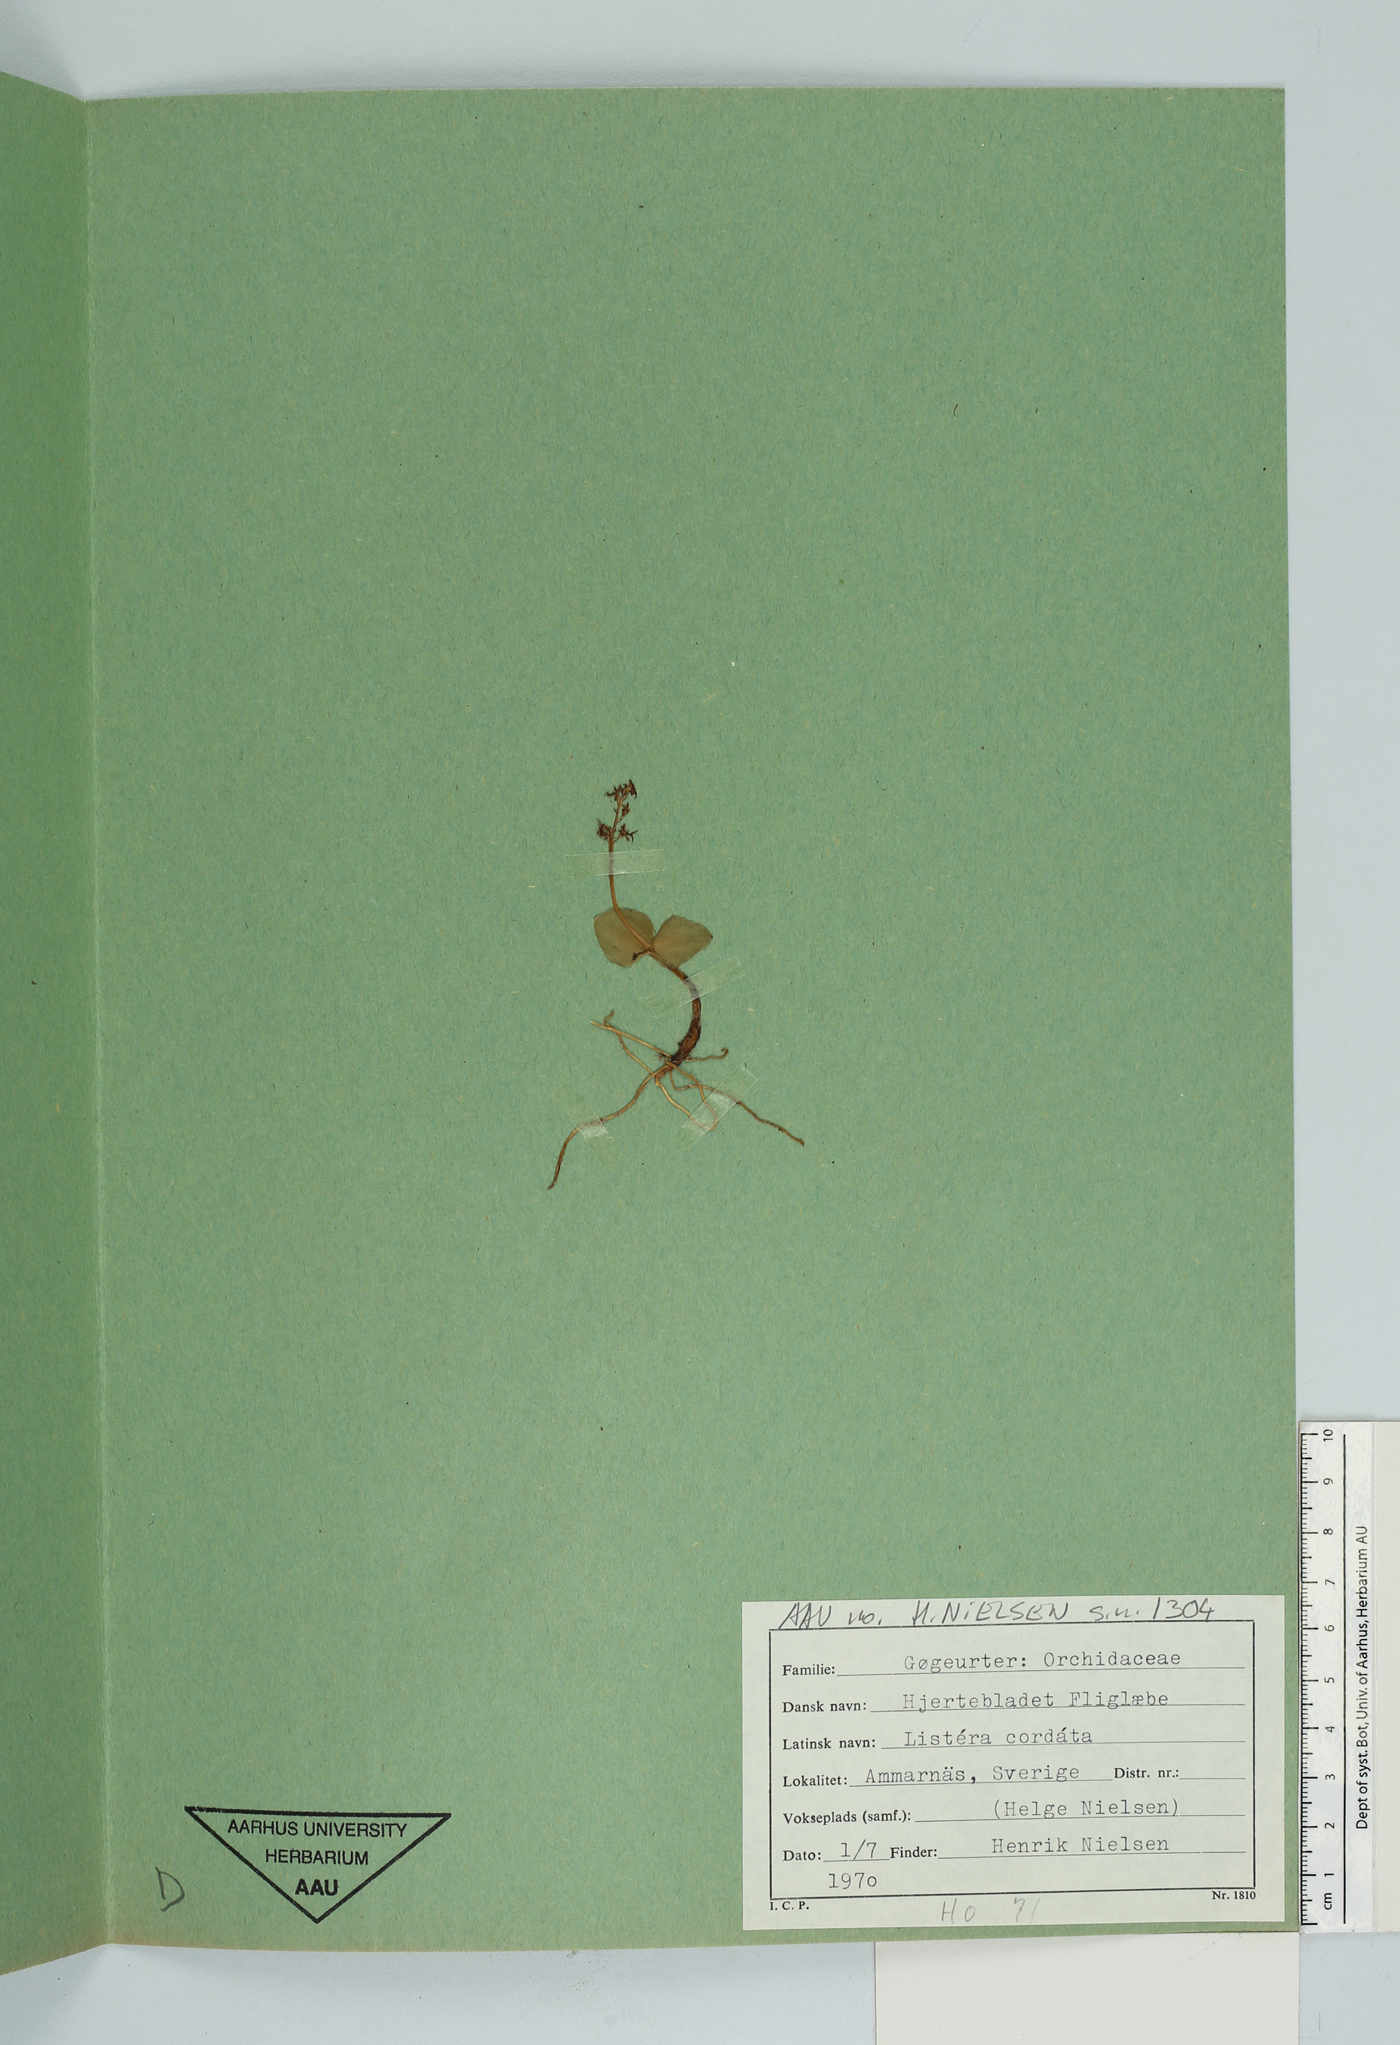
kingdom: Plantae
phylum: Tracheophyta
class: Liliopsida
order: Asparagales
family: Orchidaceae
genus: Neottia
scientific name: Neottia cordata
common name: Lesser twayblade
